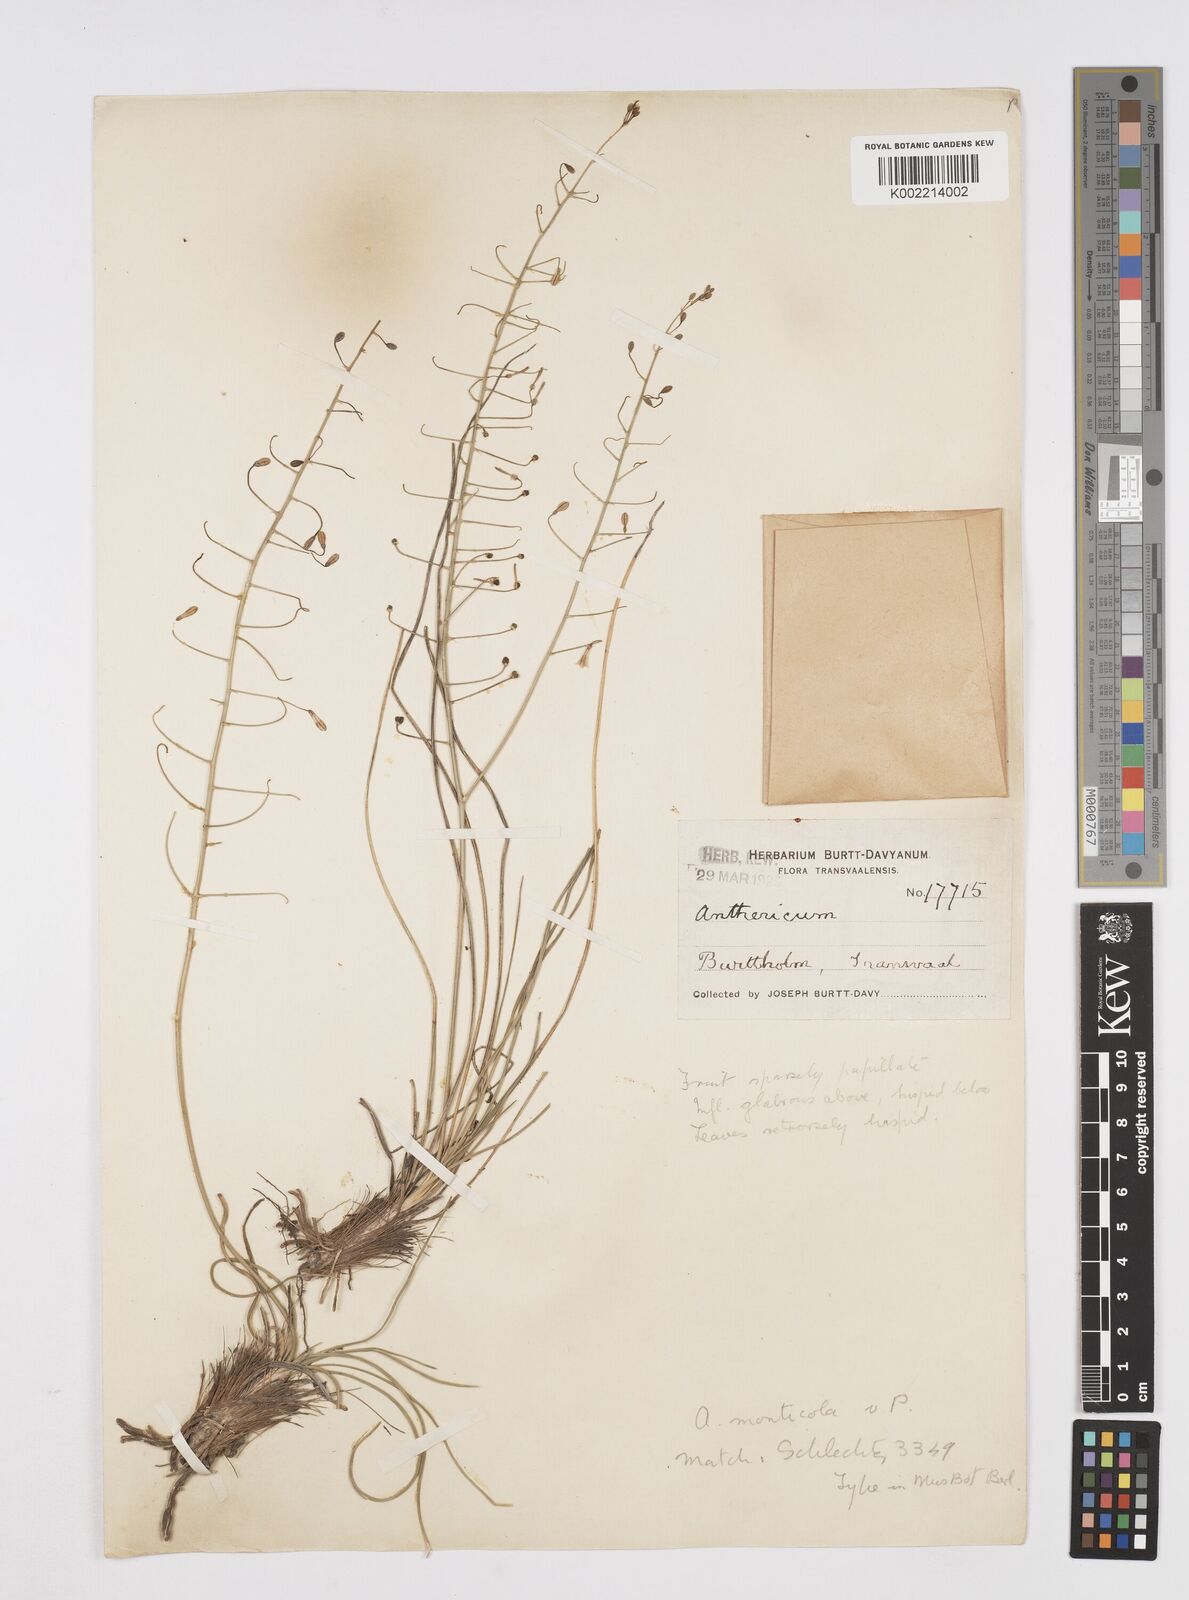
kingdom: Plantae
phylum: Tracheophyta
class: Liliopsida
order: Asparagales
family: Asphodelaceae
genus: Trachyandra
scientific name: Trachyandra asperata
